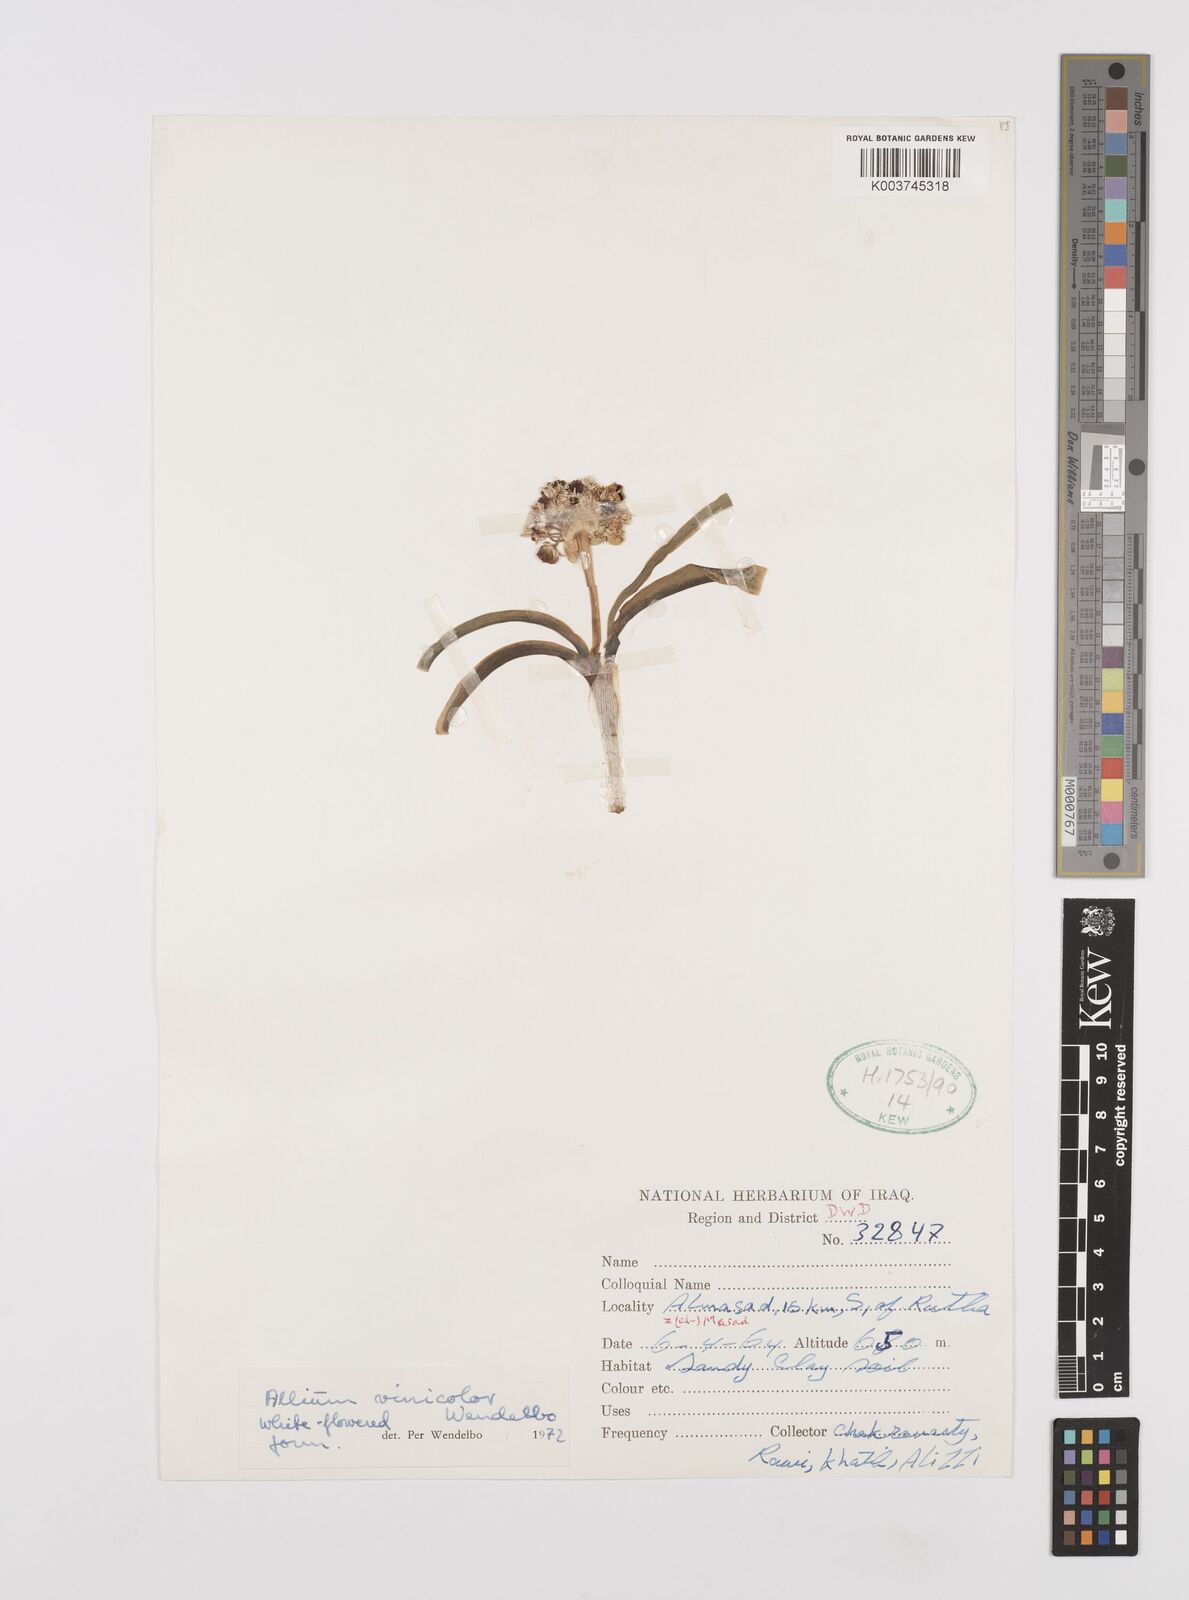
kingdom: Plantae
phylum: Tracheophyta
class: Liliopsida
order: Asparagales
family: Amaryllidaceae
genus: Allium
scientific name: Allium vinicolor
